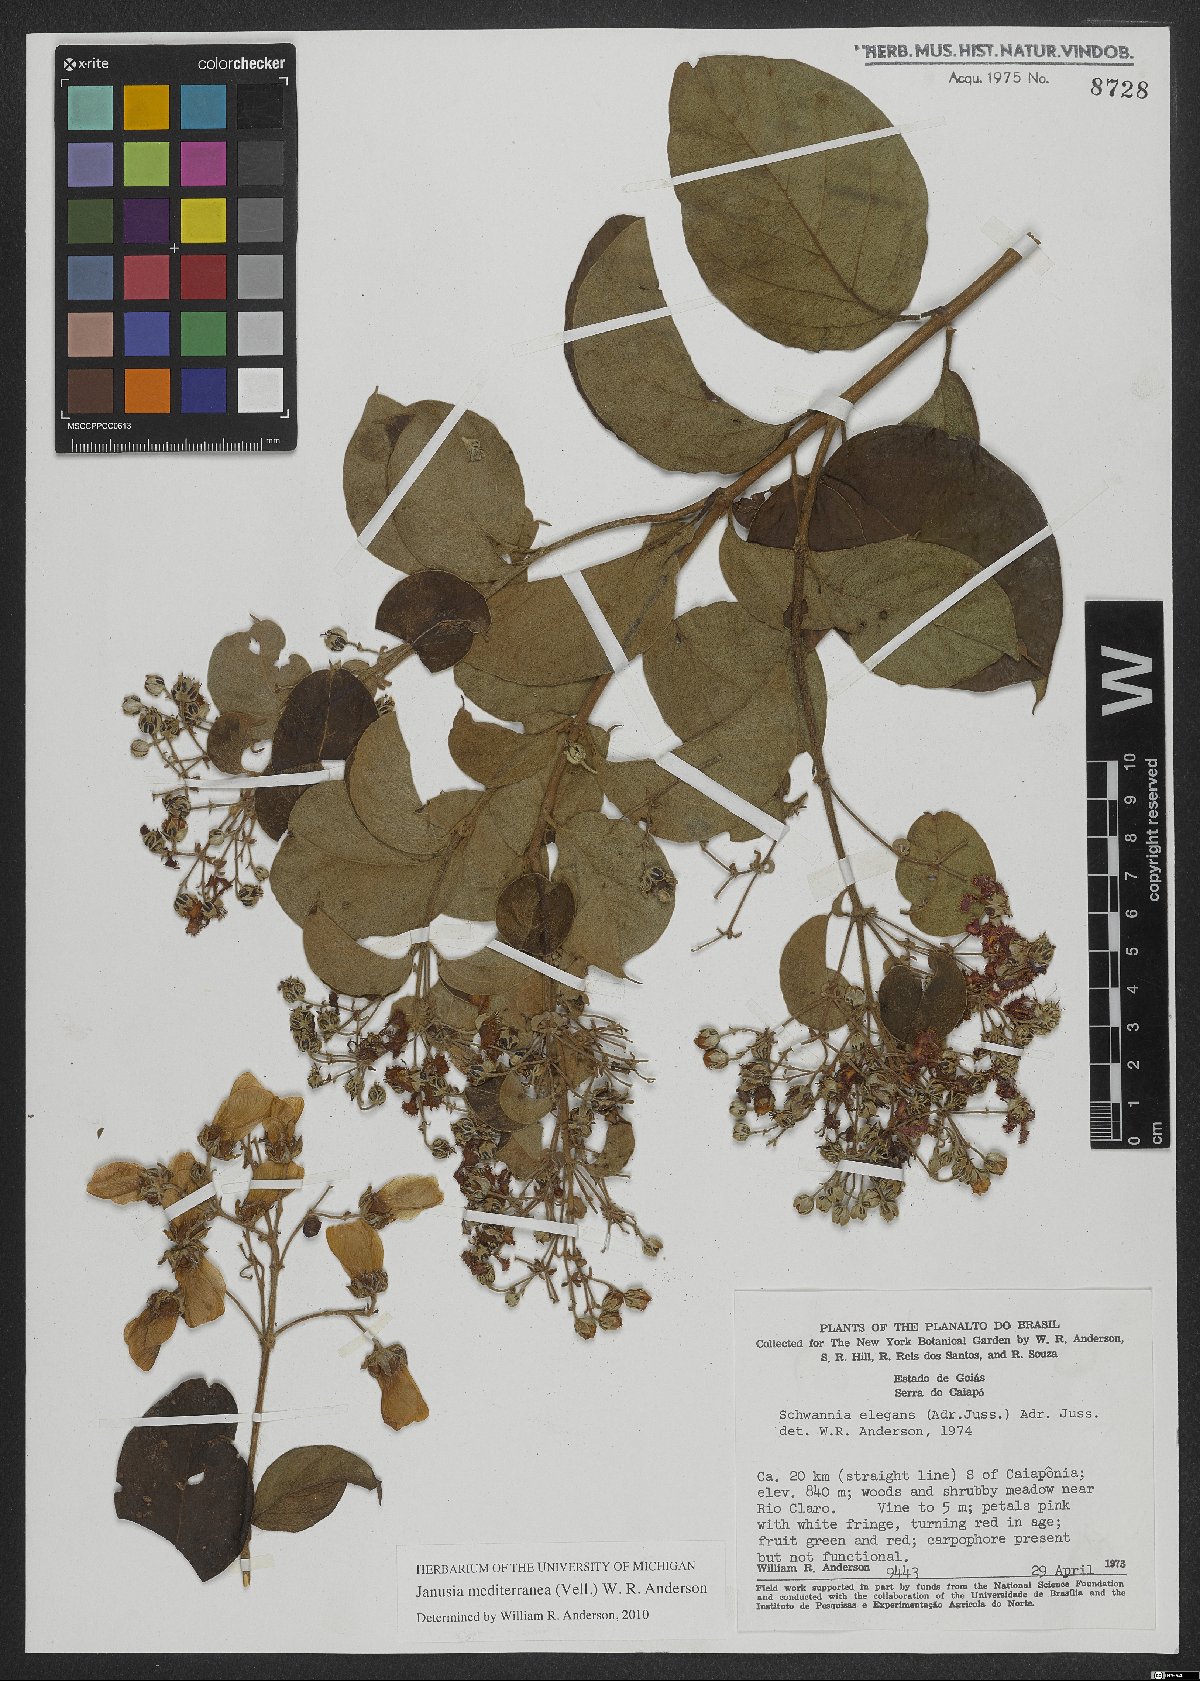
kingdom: Plantae
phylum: Tracheophyta
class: Magnoliopsida
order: Malpighiales
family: Malpighiaceae
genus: Janusia
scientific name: Janusia mediterranea
